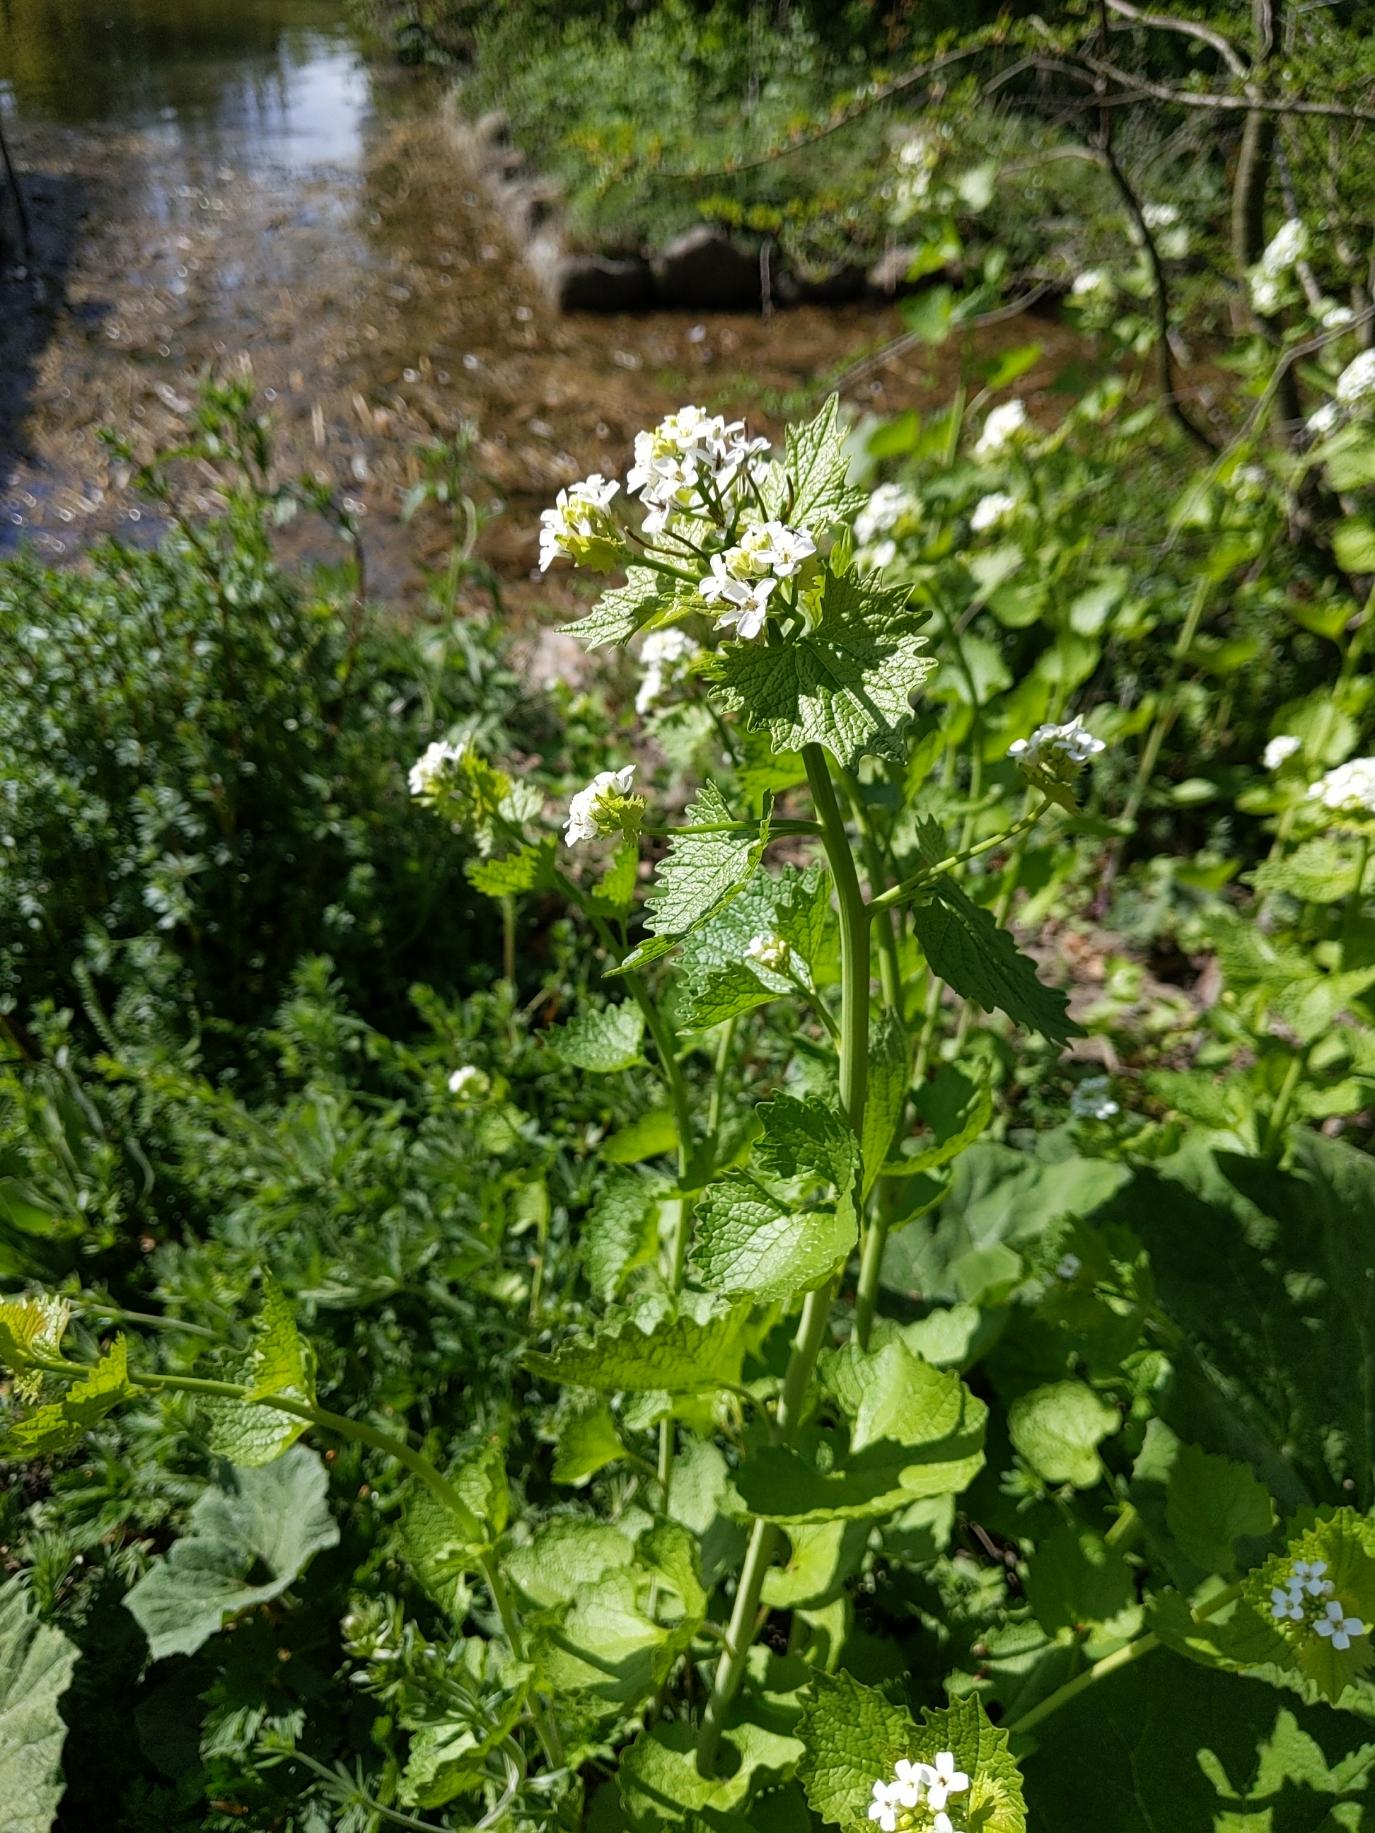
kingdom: Plantae
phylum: Tracheophyta
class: Magnoliopsida
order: Brassicales
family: Brassicaceae
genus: Alliaria
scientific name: Alliaria petiolata
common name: Løgkarse
